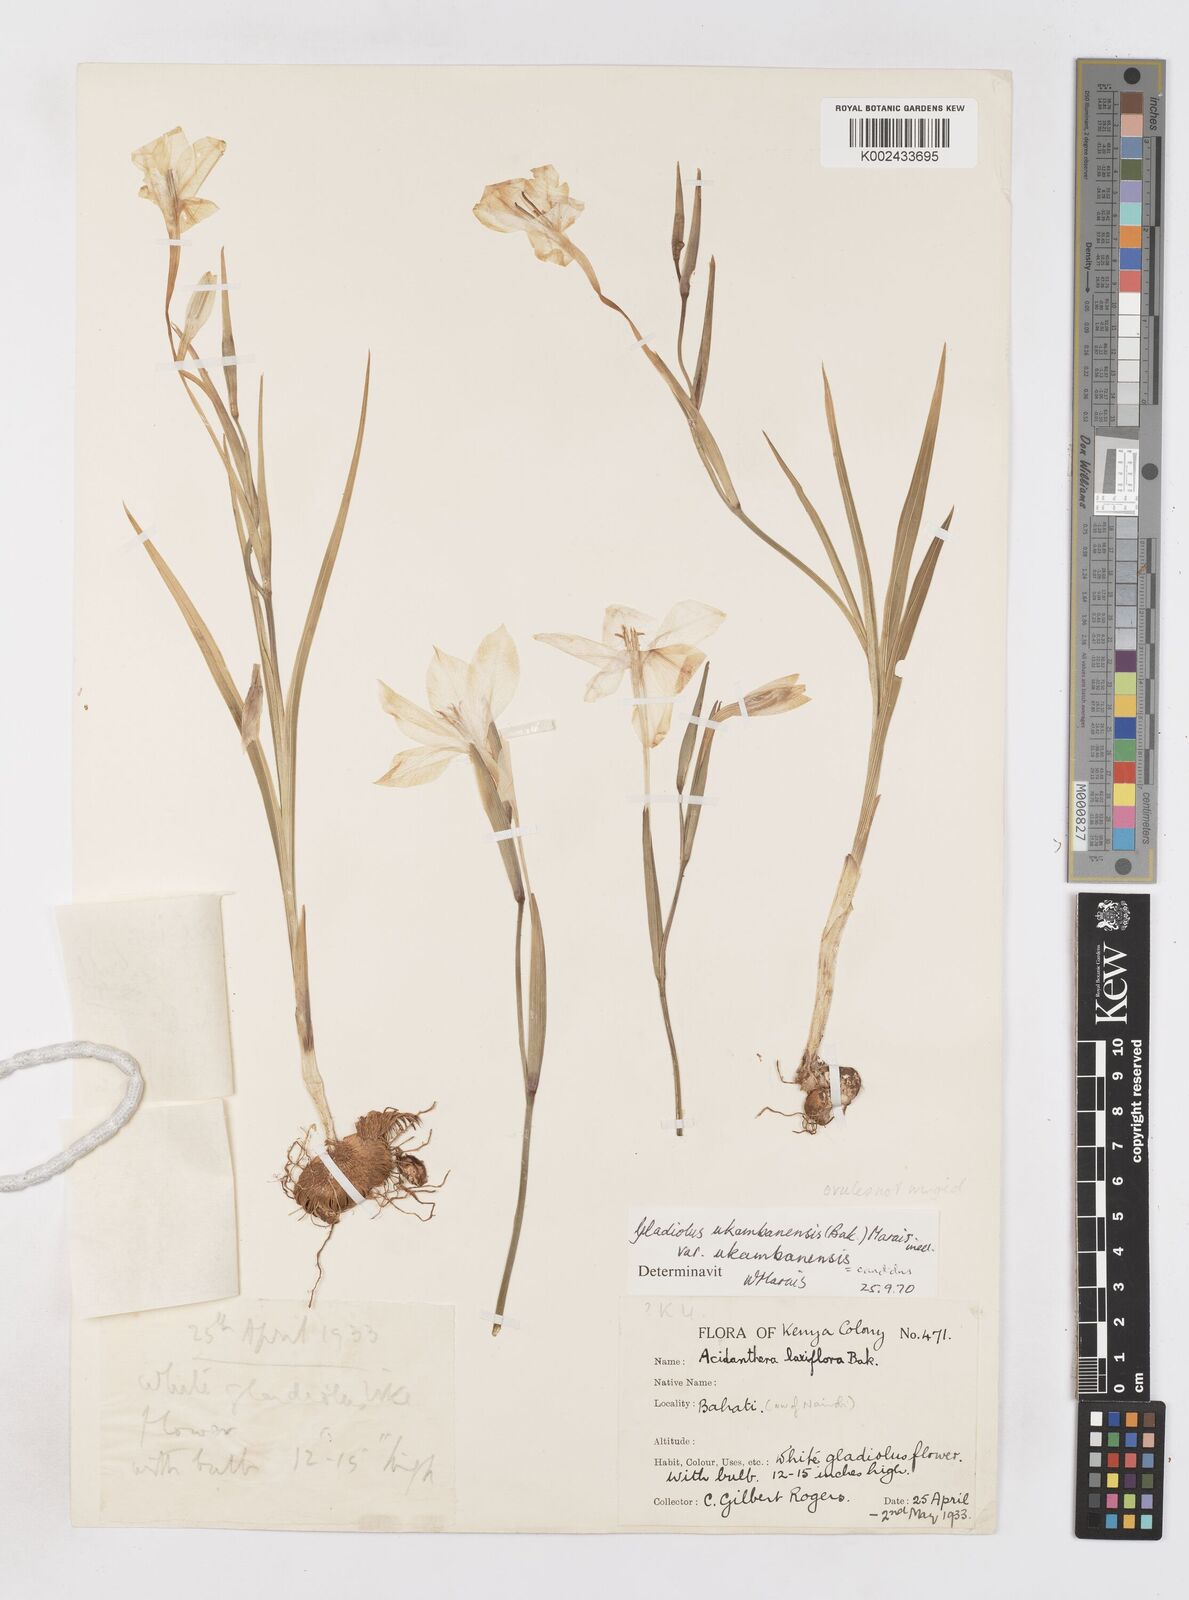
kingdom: Plantae
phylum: Tracheophyta
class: Liliopsida
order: Asparagales
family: Iridaceae
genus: Gladiolus
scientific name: Gladiolus candidus
